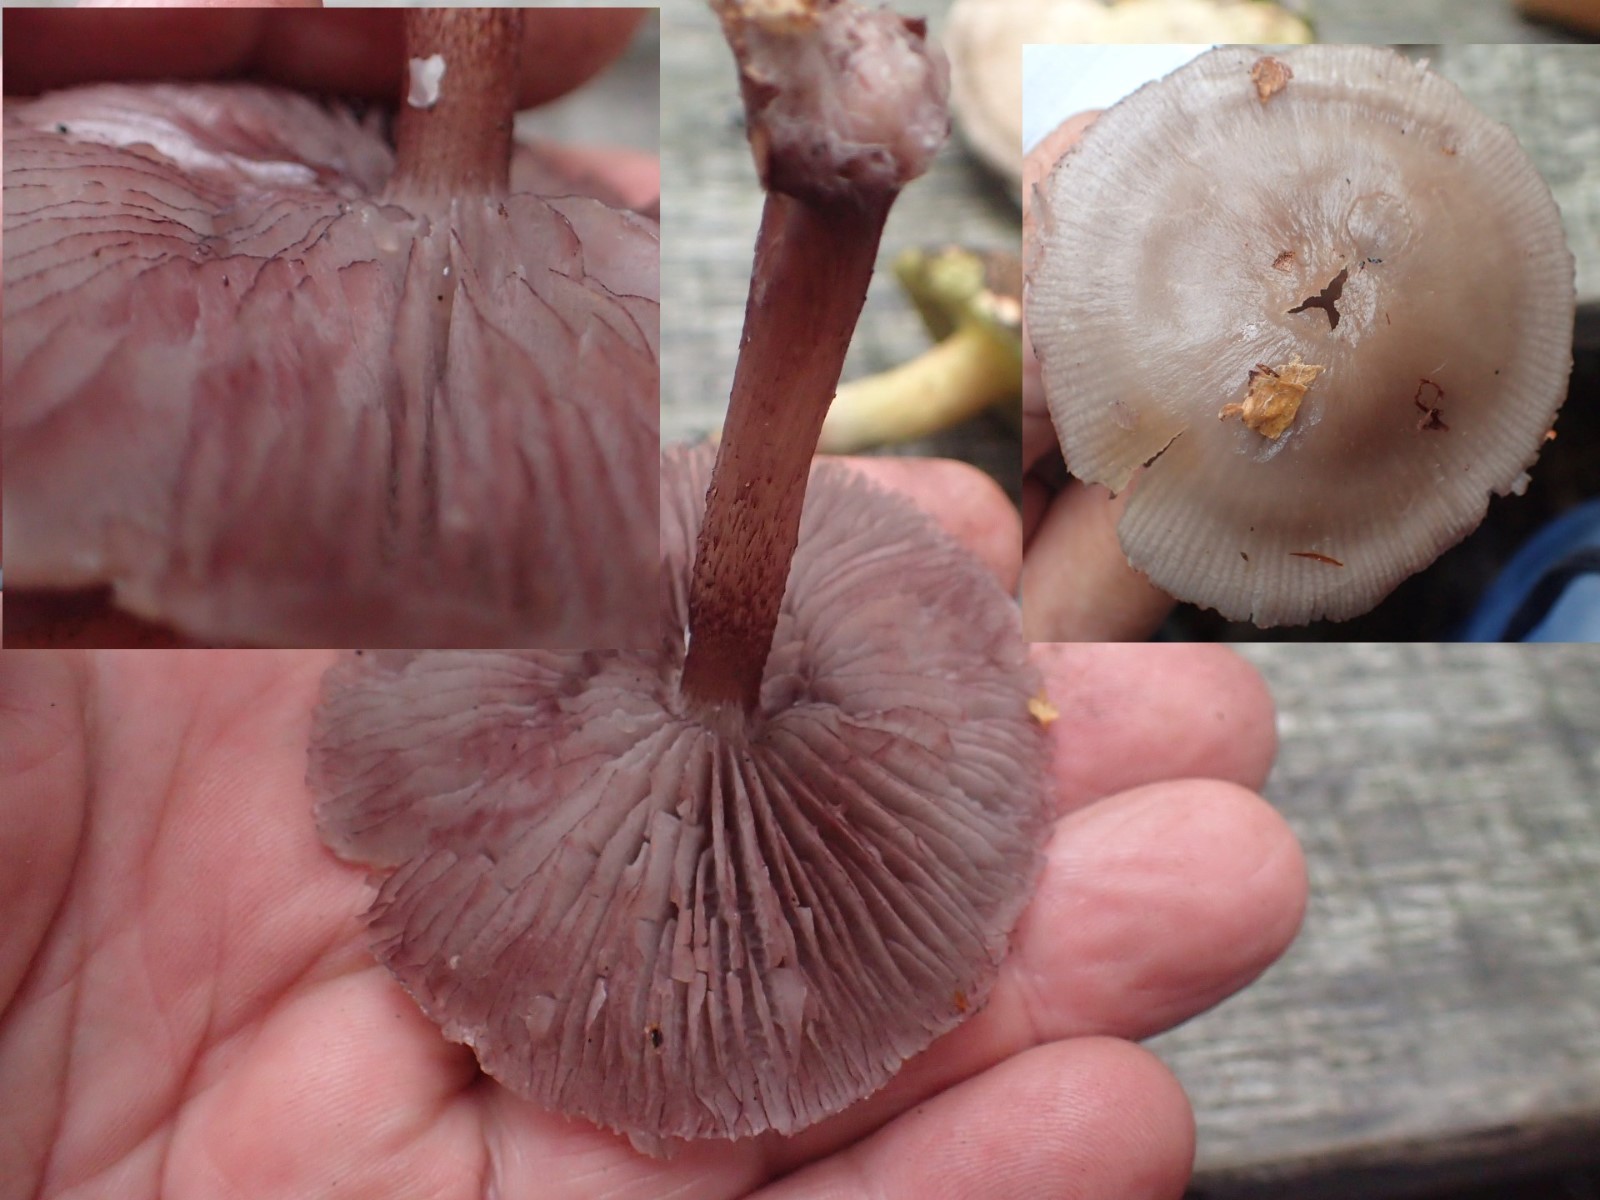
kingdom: Fungi
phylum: Basidiomycota
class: Agaricomycetes
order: Agaricales
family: Mycenaceae
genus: Mycena
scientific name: Mycena pelianthina
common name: mørkbladet huesvamp
